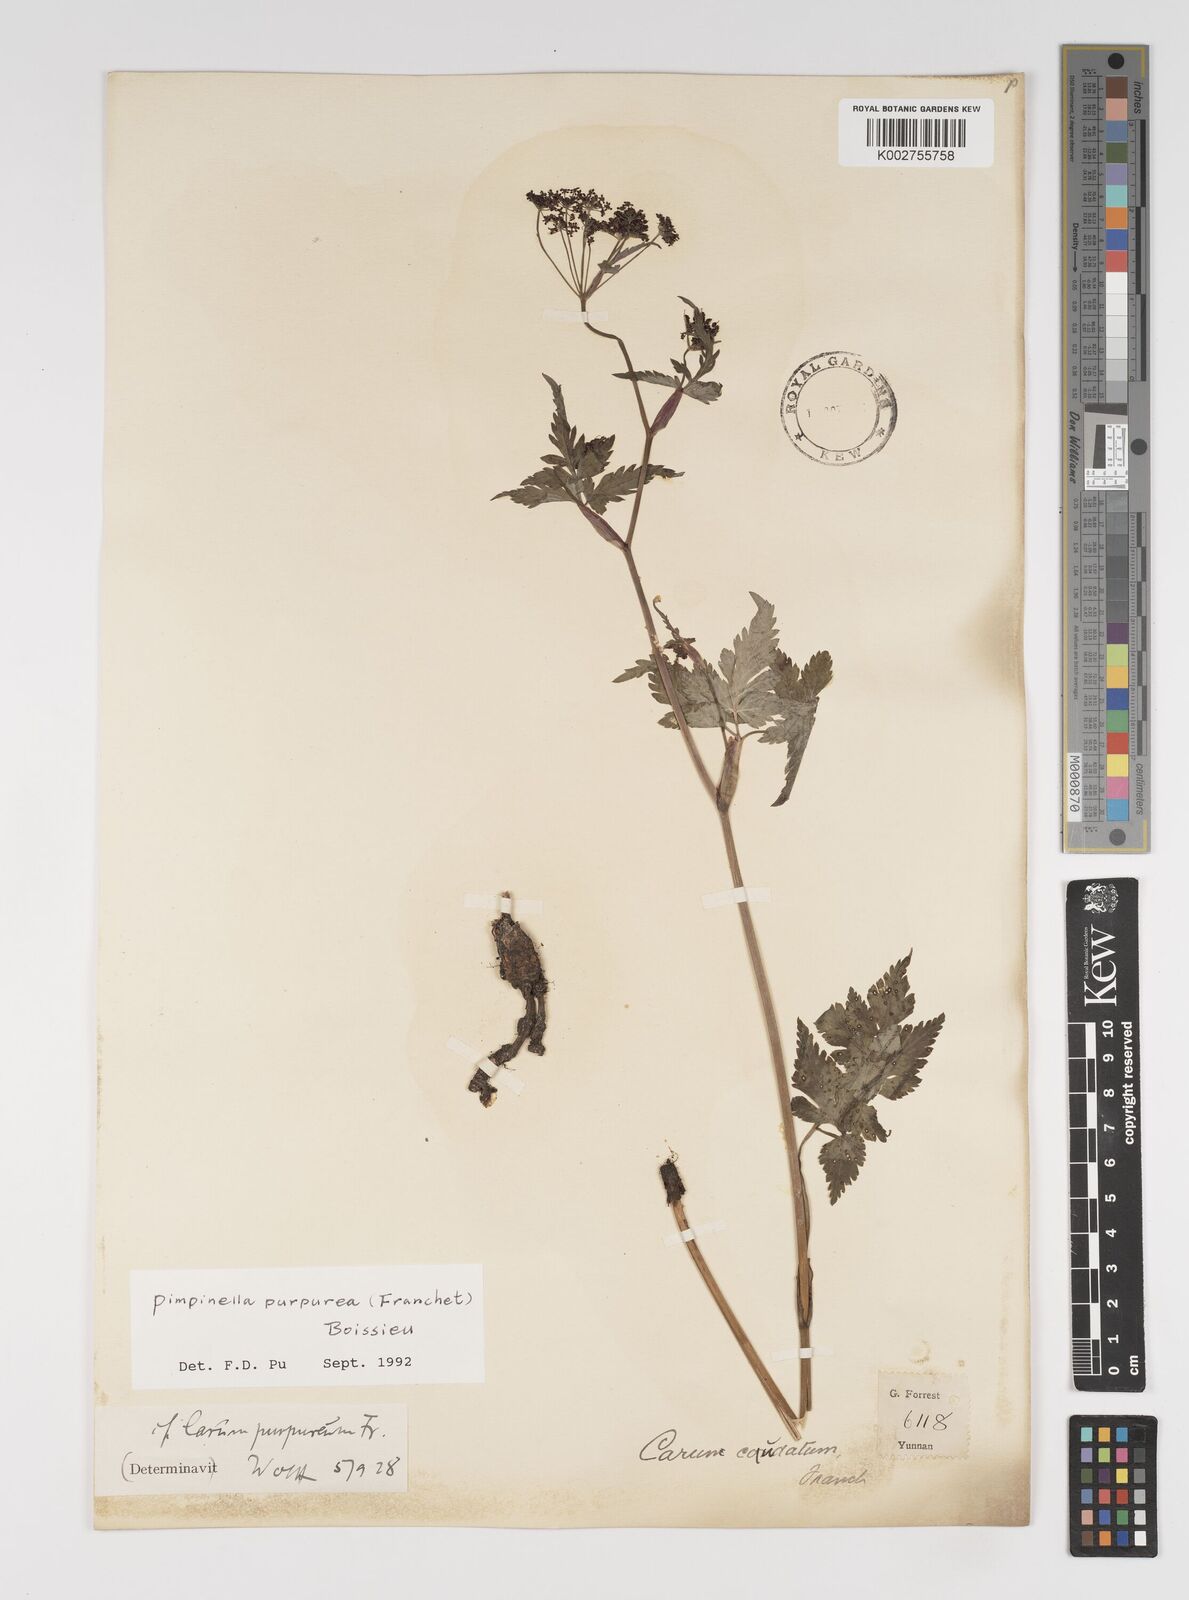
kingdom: Plantae
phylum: Tracheophyta
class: Magnoliopsida
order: Apiales
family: Apiaceae
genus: Pimpinella
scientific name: Pimpinella purpurea
